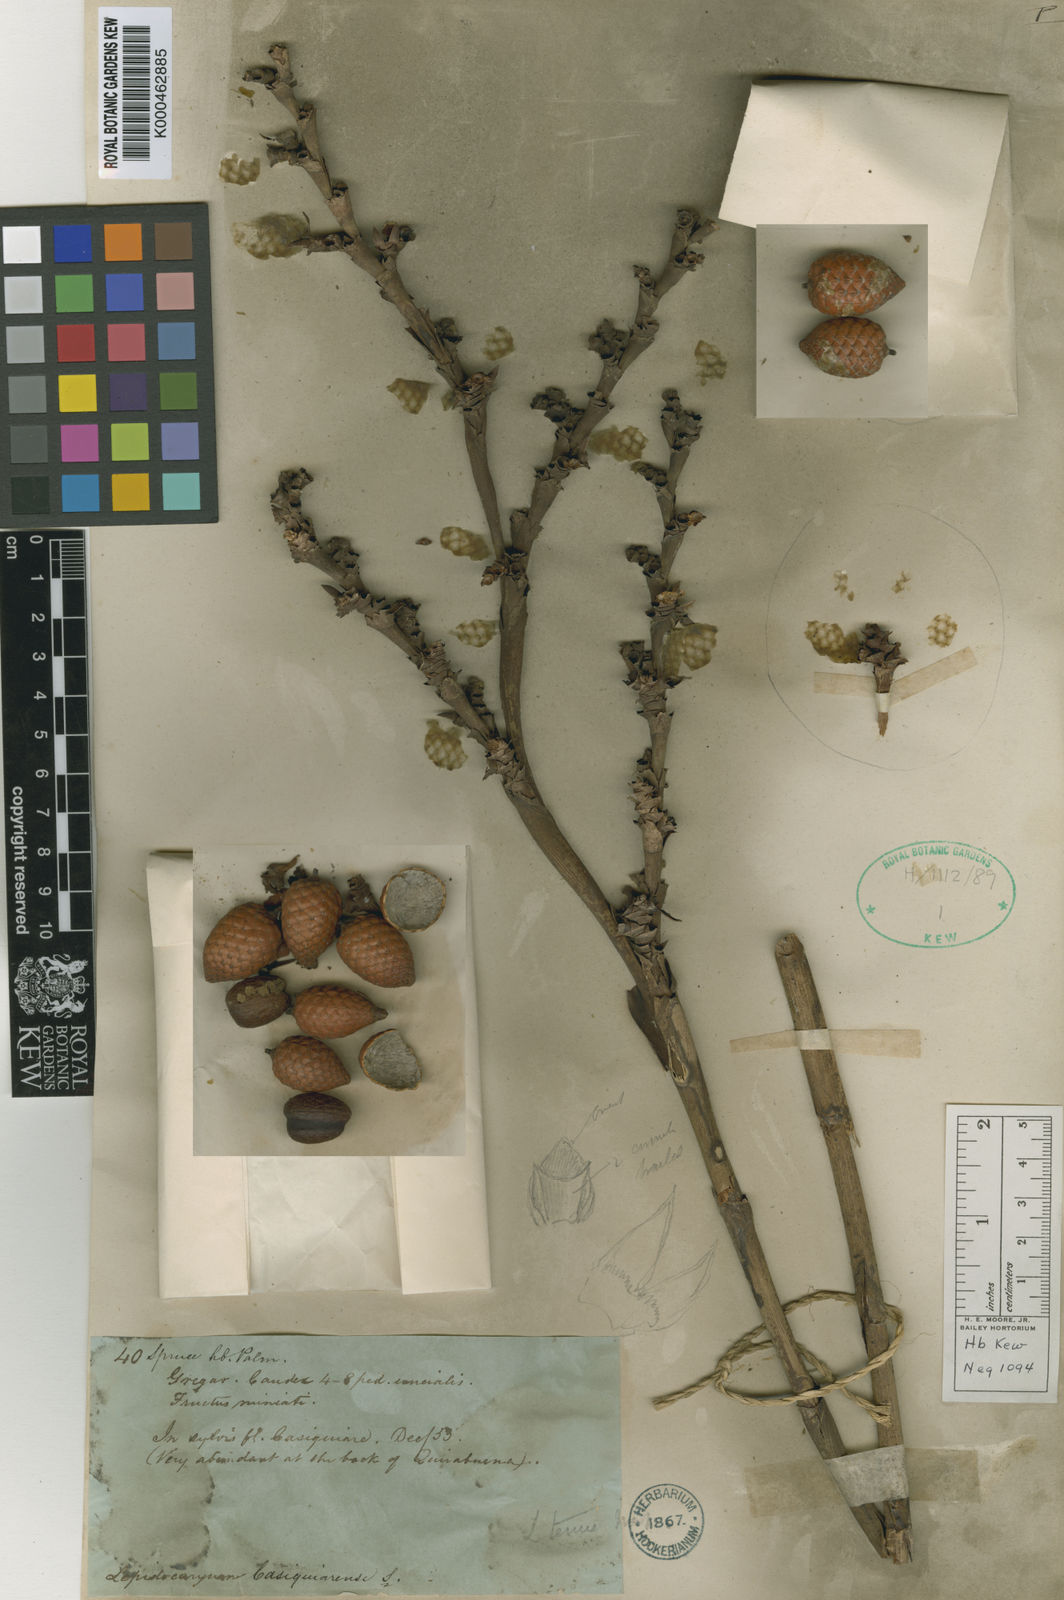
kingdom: Plantae
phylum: Tracheophyta
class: Liliopsida
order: Arecales
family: Arecaceae
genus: Lepidocaryum
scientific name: Lepidocaryum tenue
